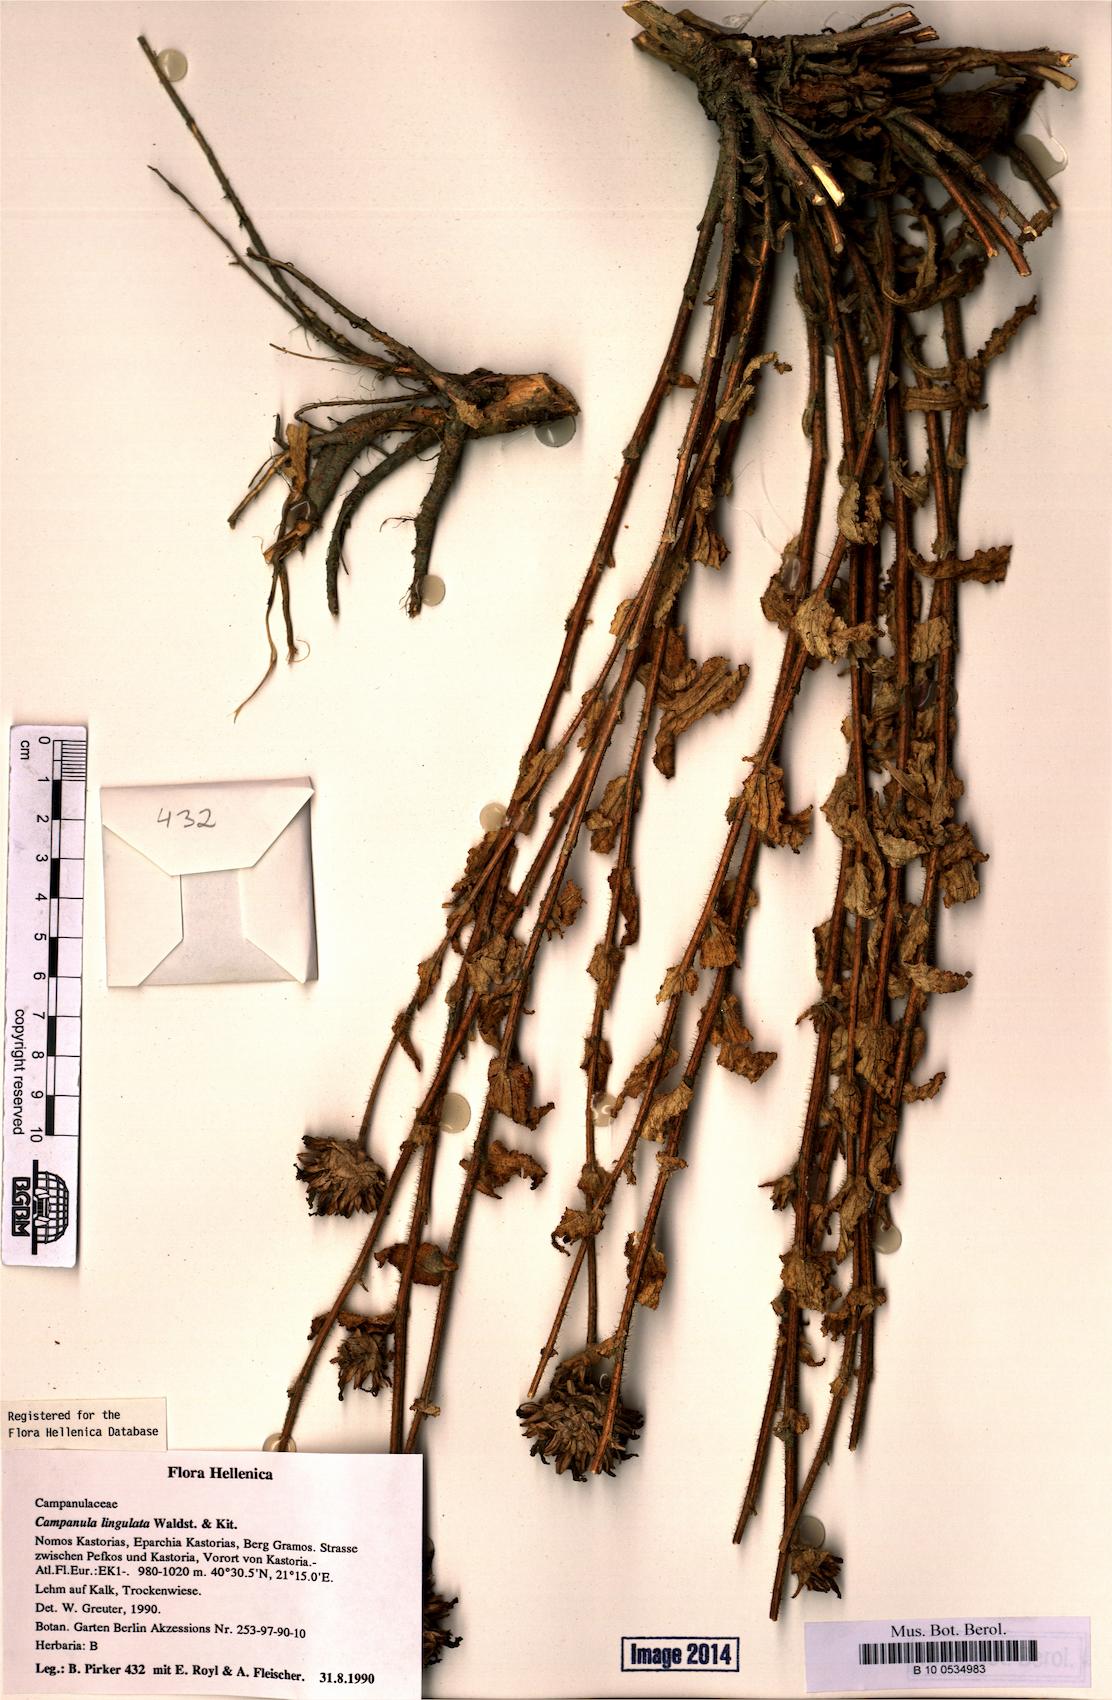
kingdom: Plantae
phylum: Tracheophyta
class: Magnoliopsida
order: Asterales
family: Campanulaceae
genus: Campanula
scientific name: Campanula lingulata
